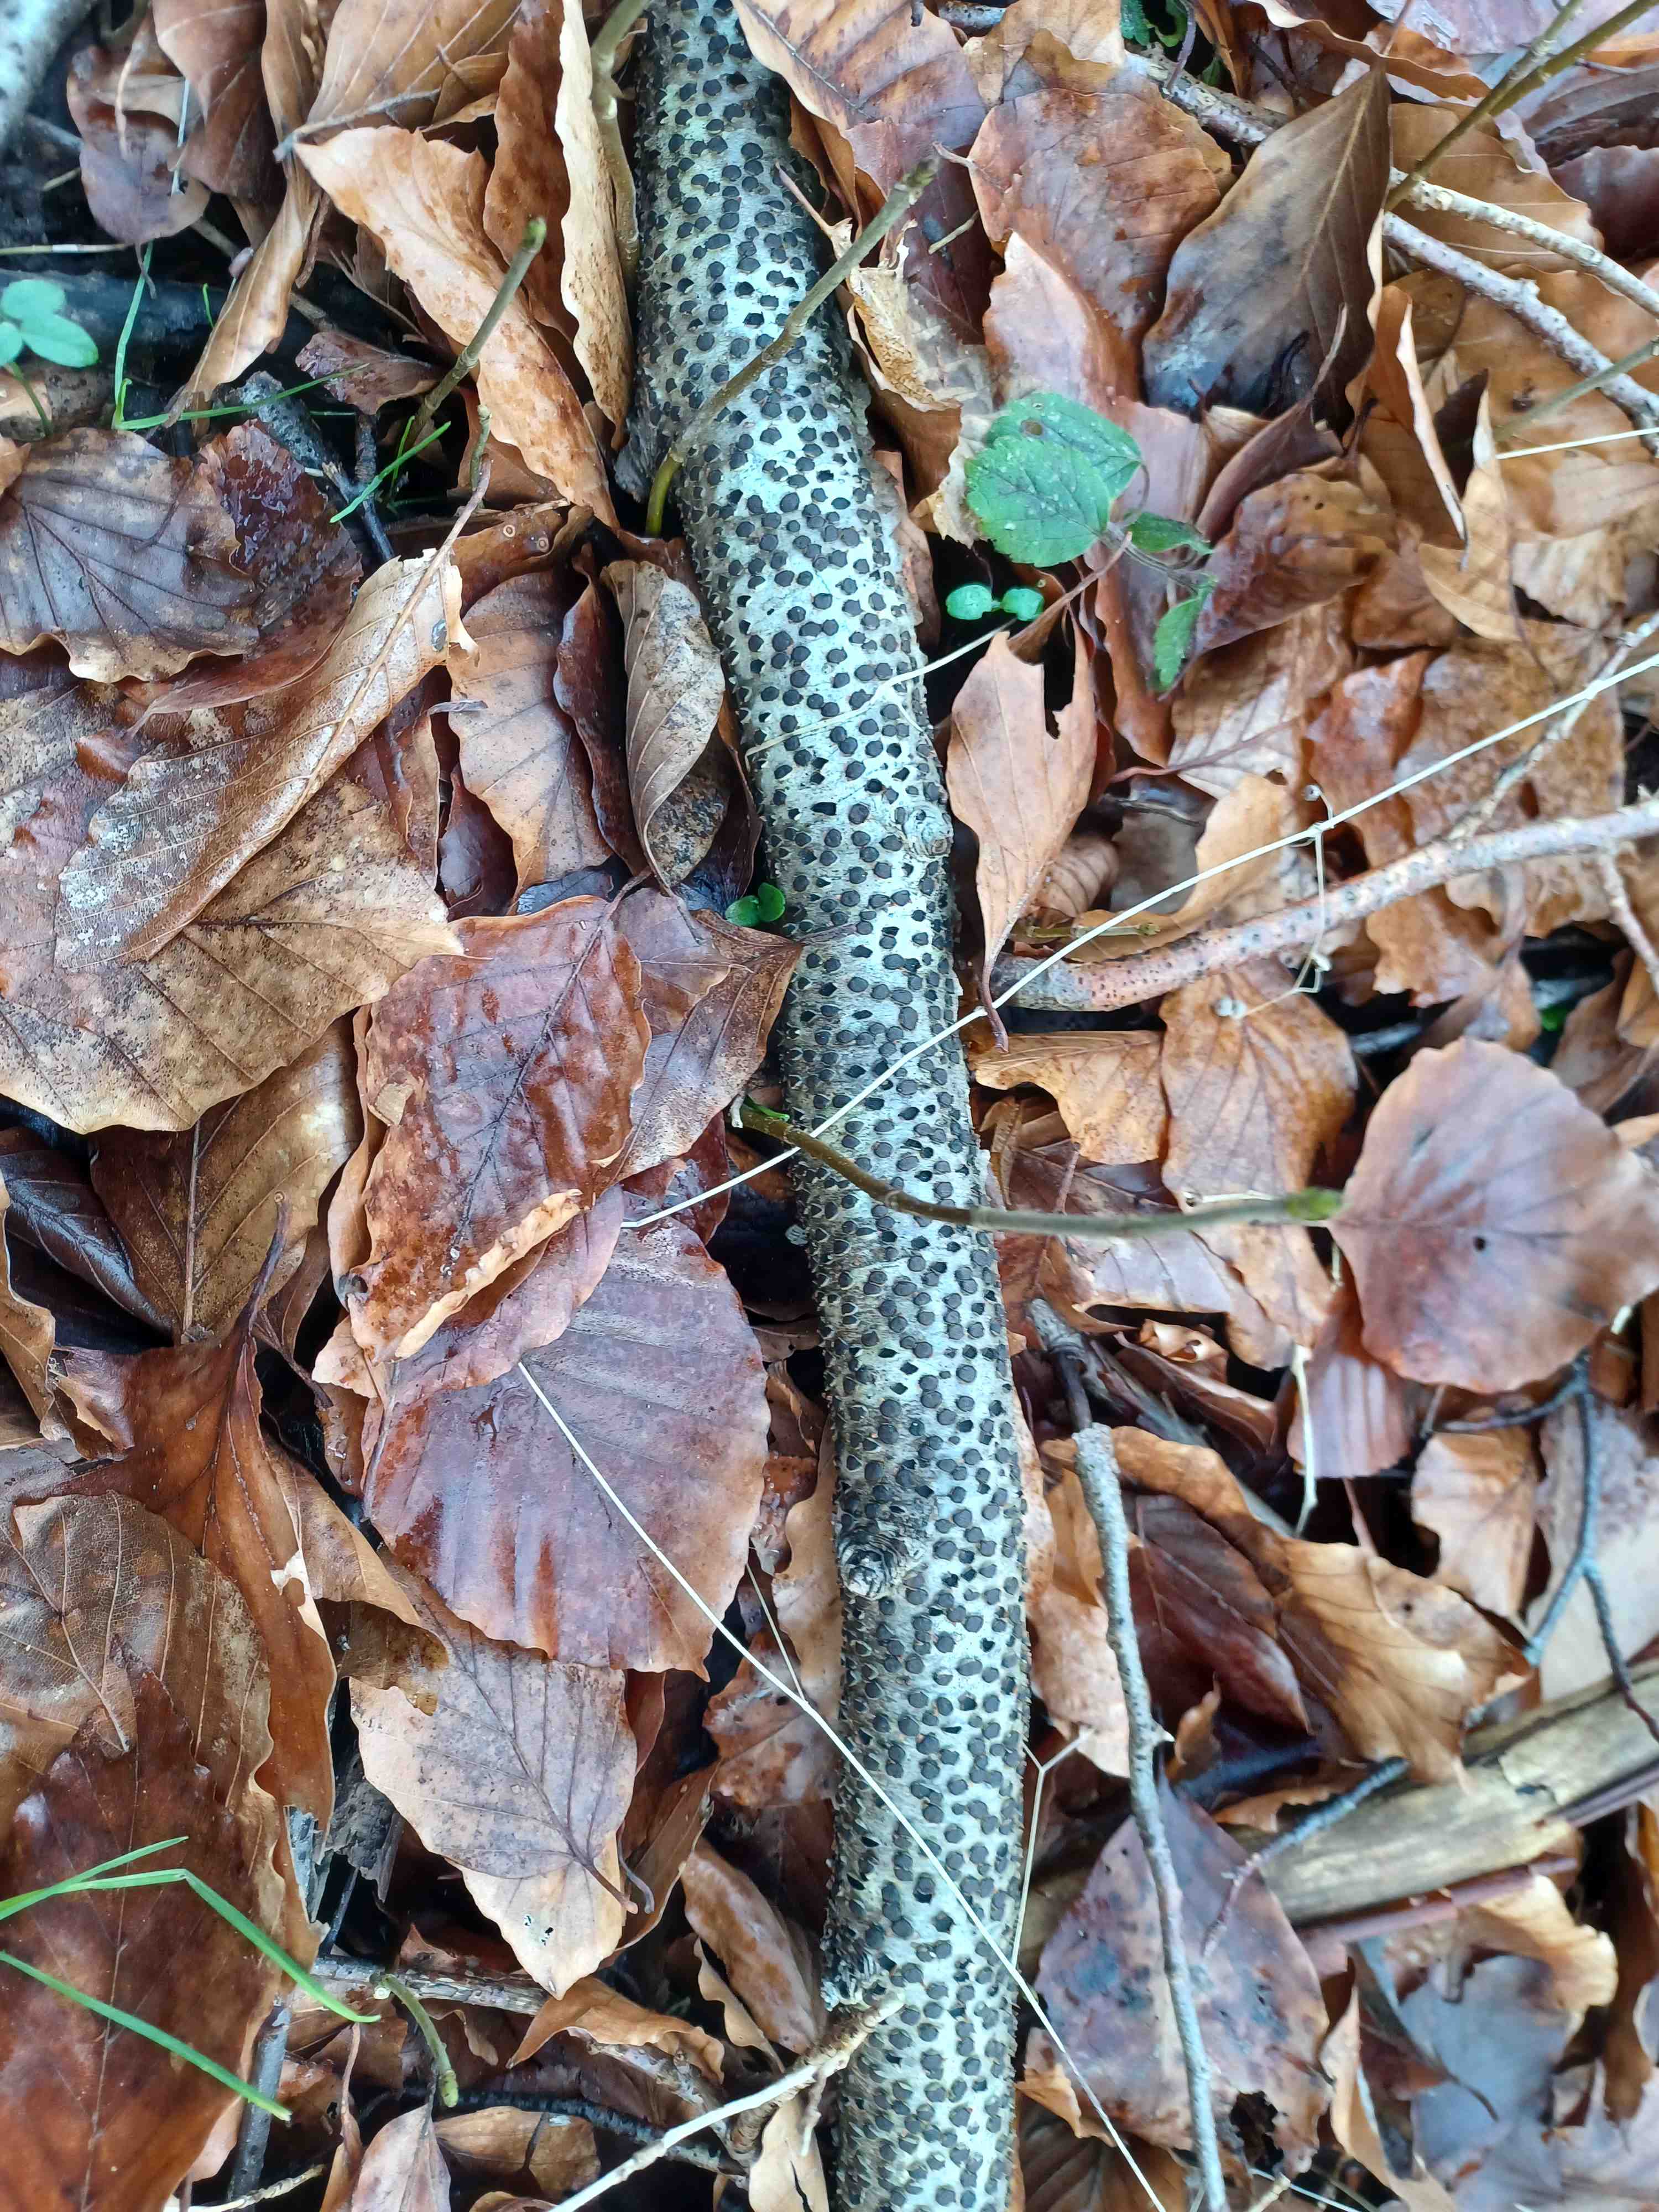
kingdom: Fungi
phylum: Ascomycota
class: Sordariomycetes
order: Xylariales
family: Diatrypaceae
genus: Diatrype
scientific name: Diatrype disciformis
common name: kant-kulskorpe
